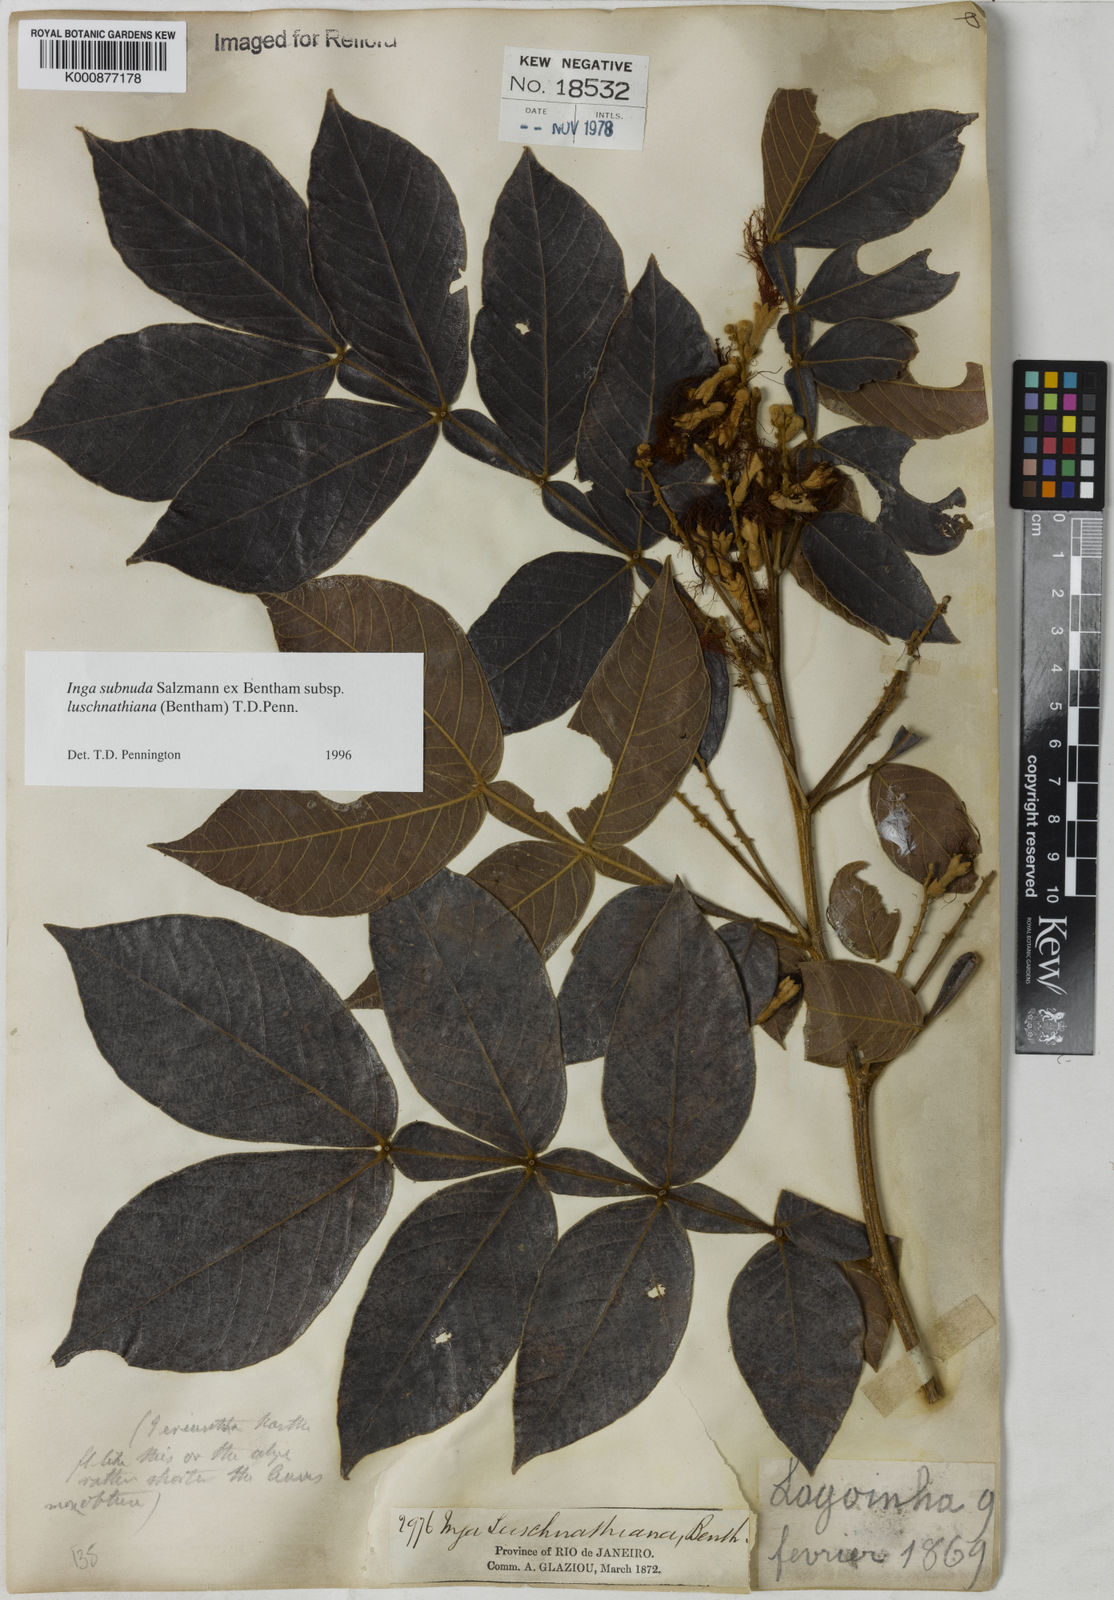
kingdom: Plantae
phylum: Tracheophyta
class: Magnoliopsida
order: Fabales
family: Fabaceae
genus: Inga
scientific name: Inga subnuda
